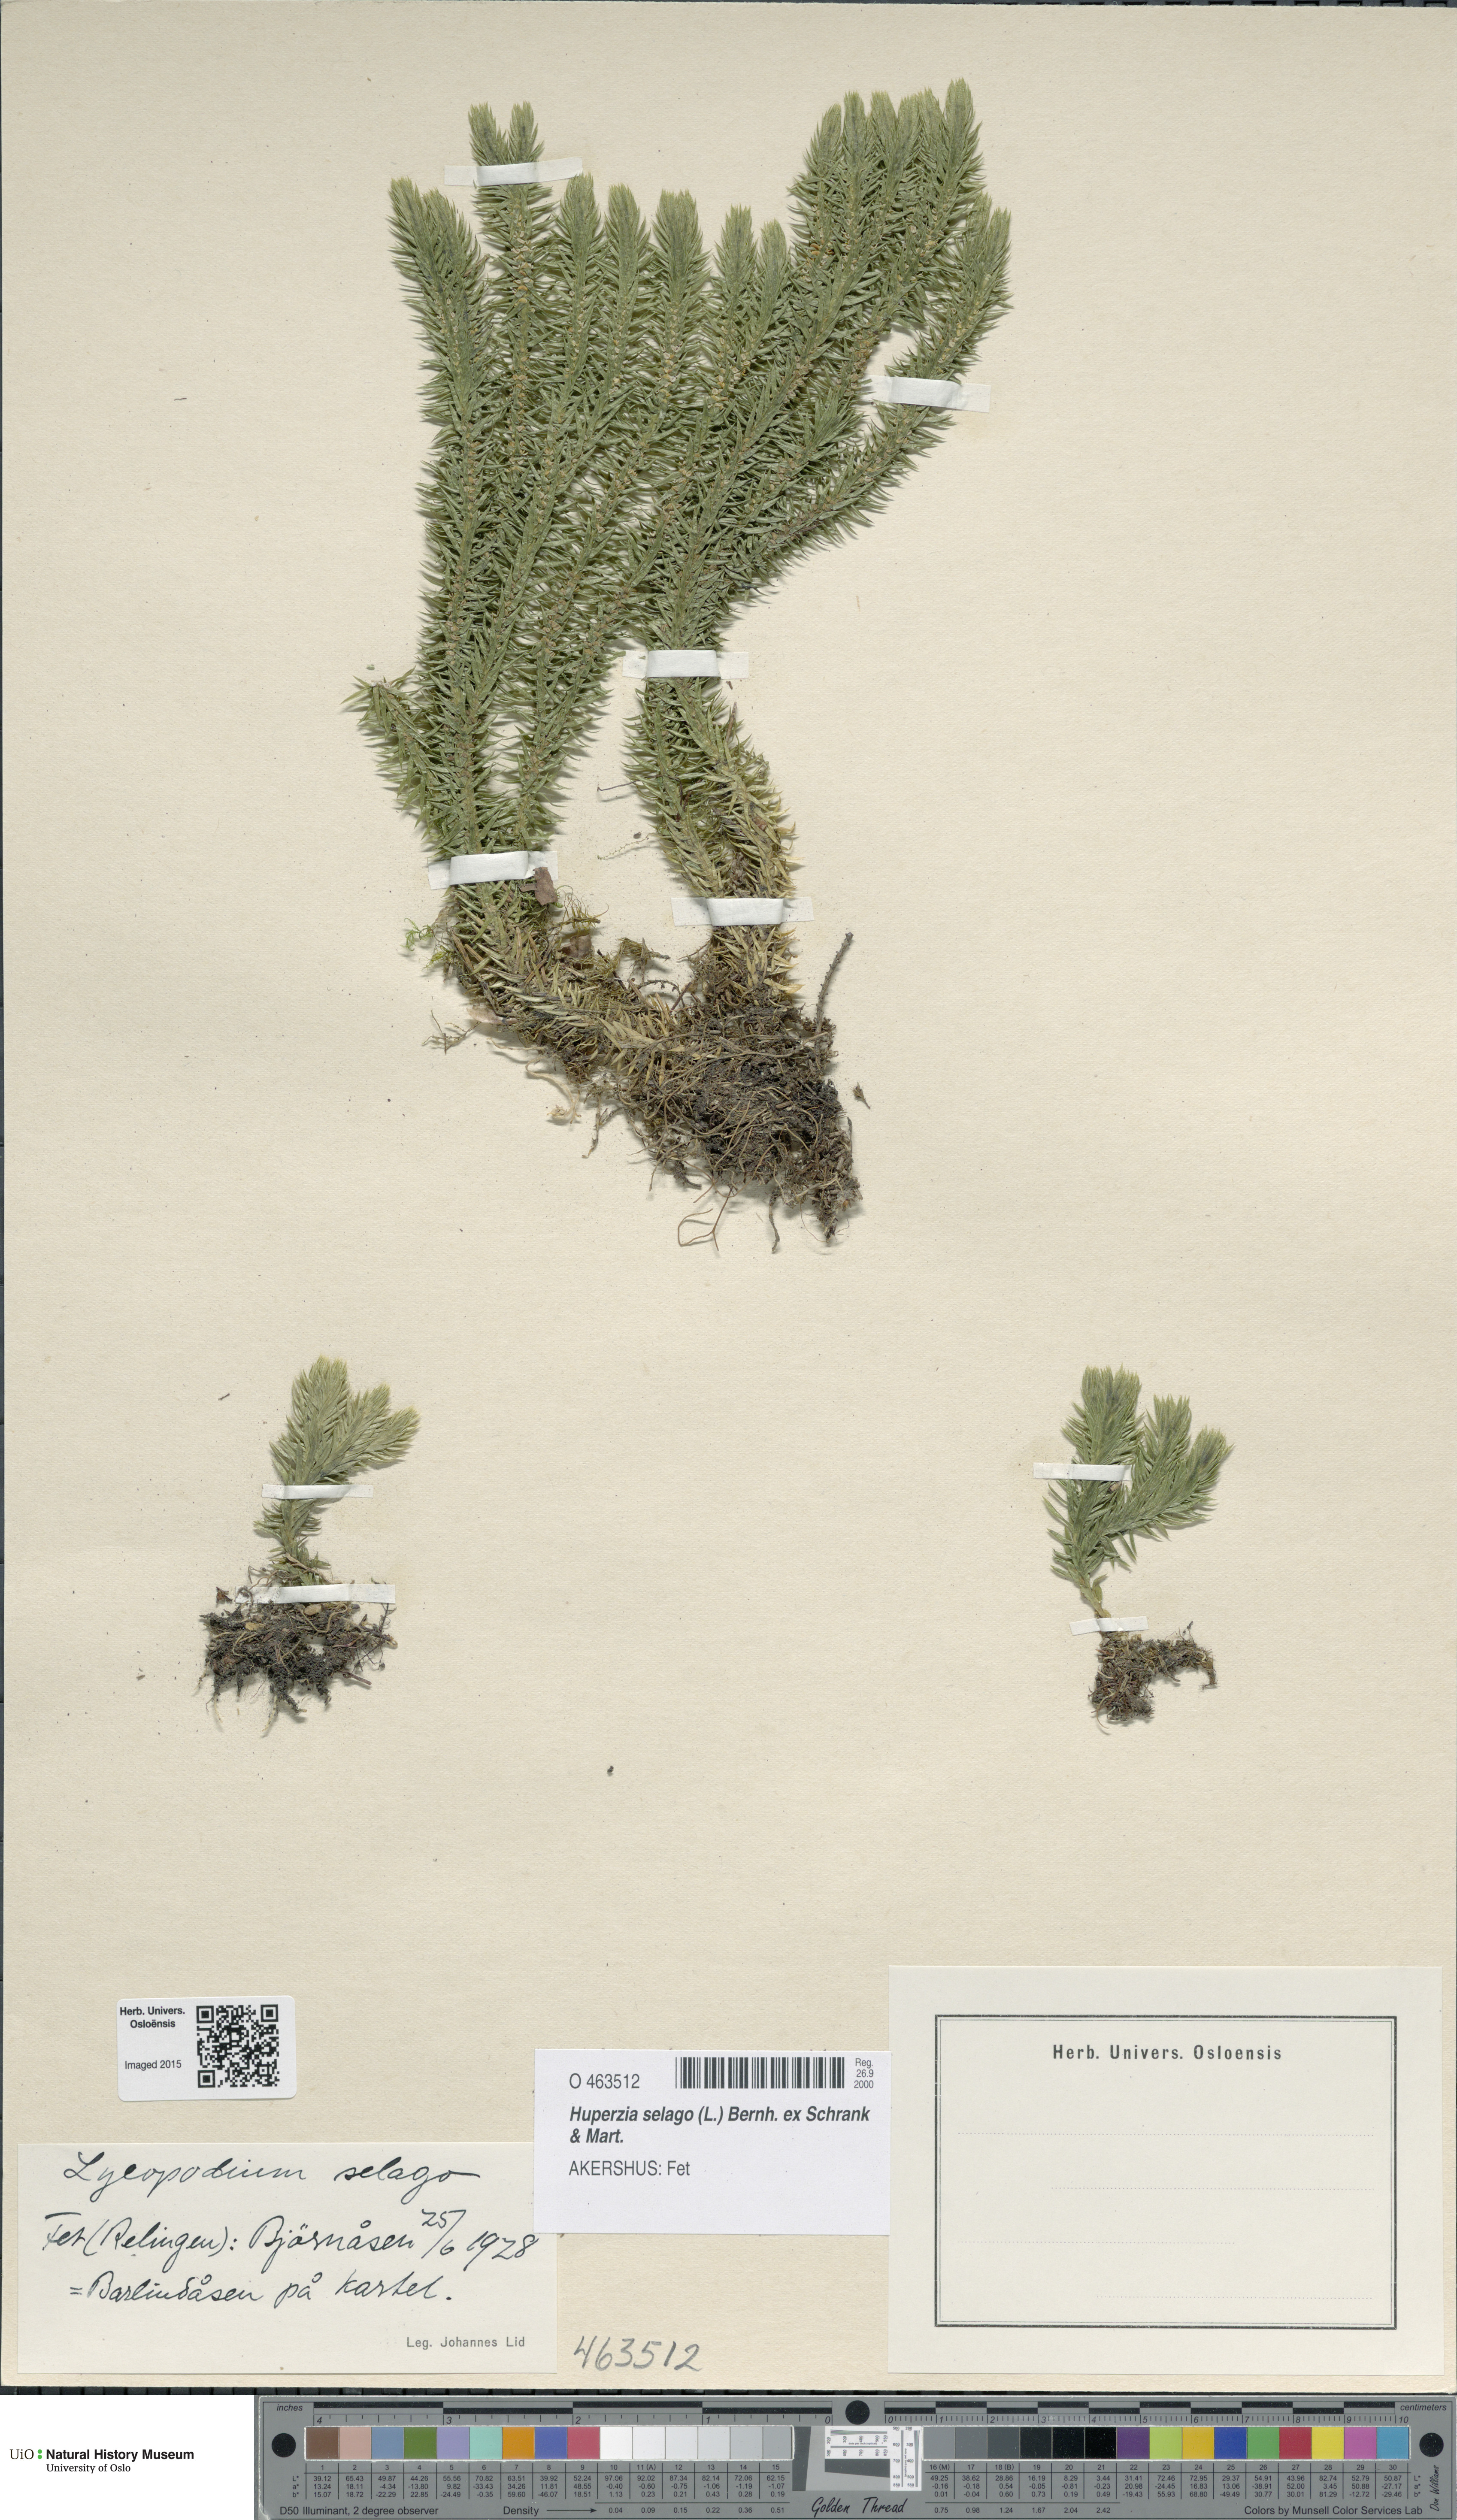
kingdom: Plantae
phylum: Tracheophyta
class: Lycopodiopsida
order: Lycopodiales
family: Lycopodiaceae
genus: Huperzia
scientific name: Huperzia selago
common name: Northern firmoss
